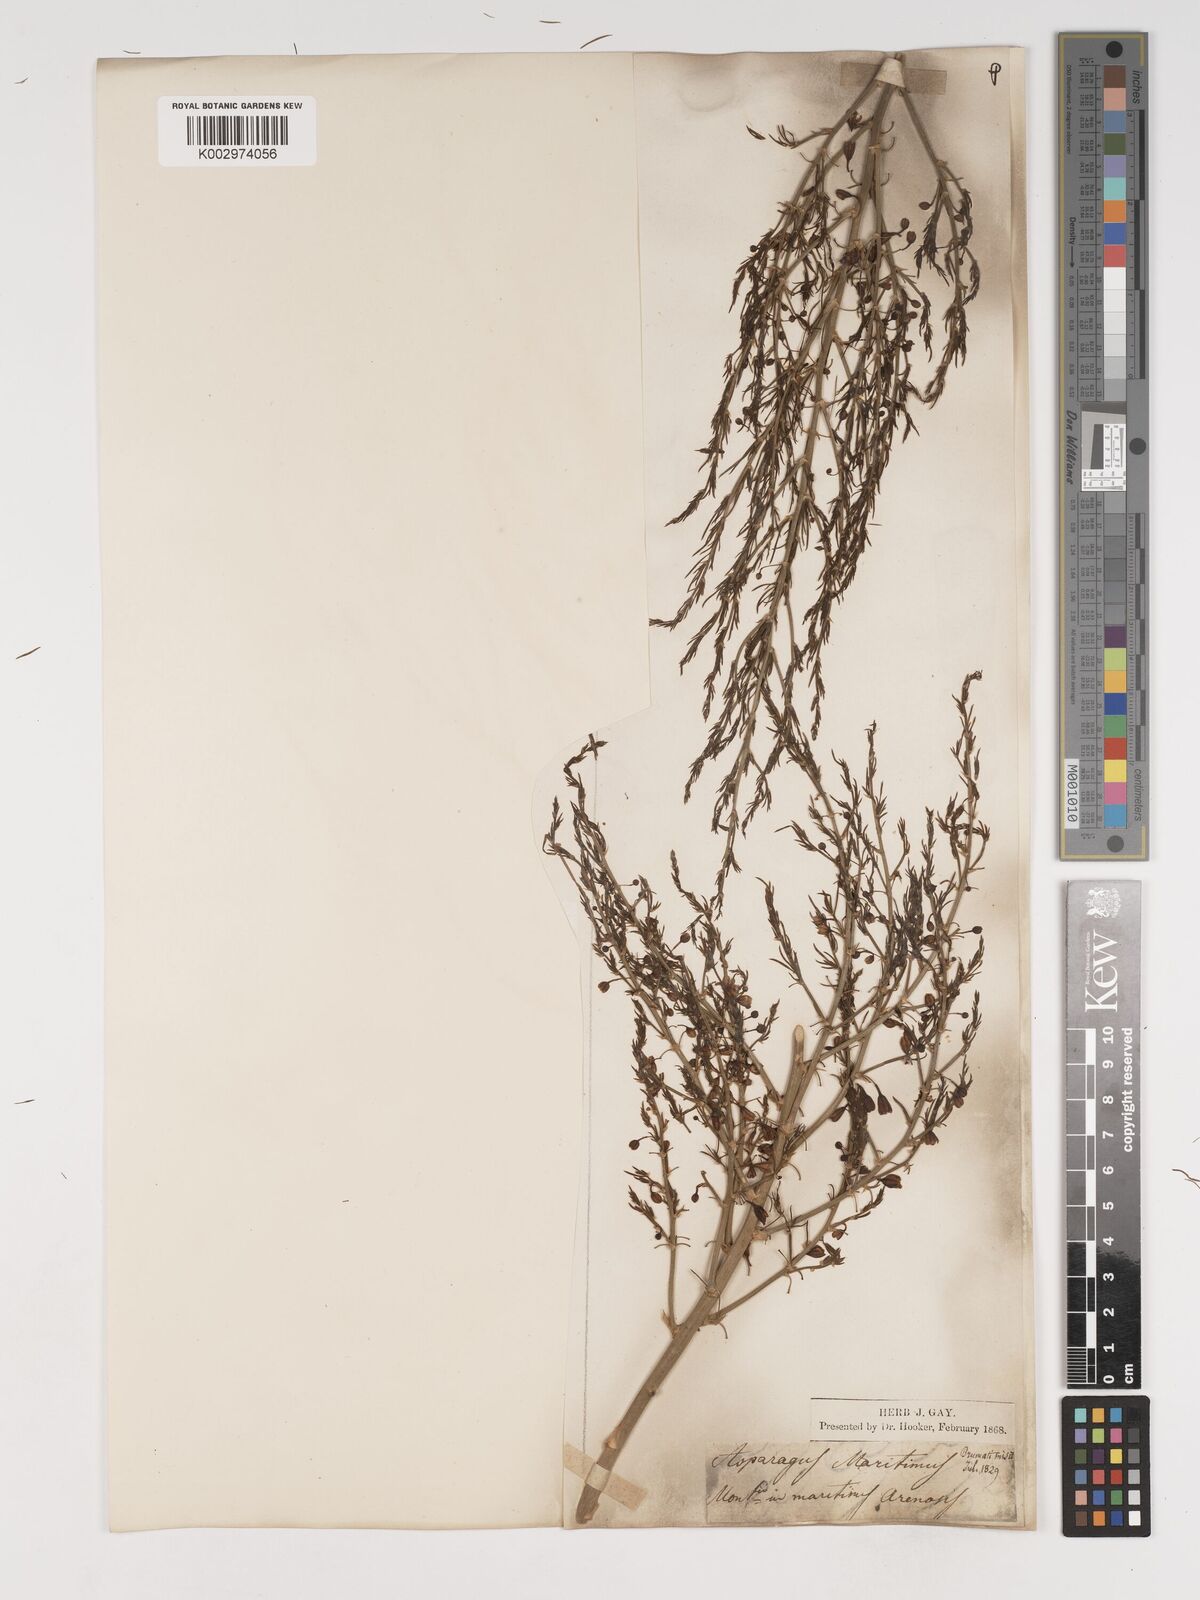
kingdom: Plantae
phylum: Tracheophyta
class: Liliopsida
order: Asparagales
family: Asparagaceae
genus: Asparagus
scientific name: Asparagus maritimus
